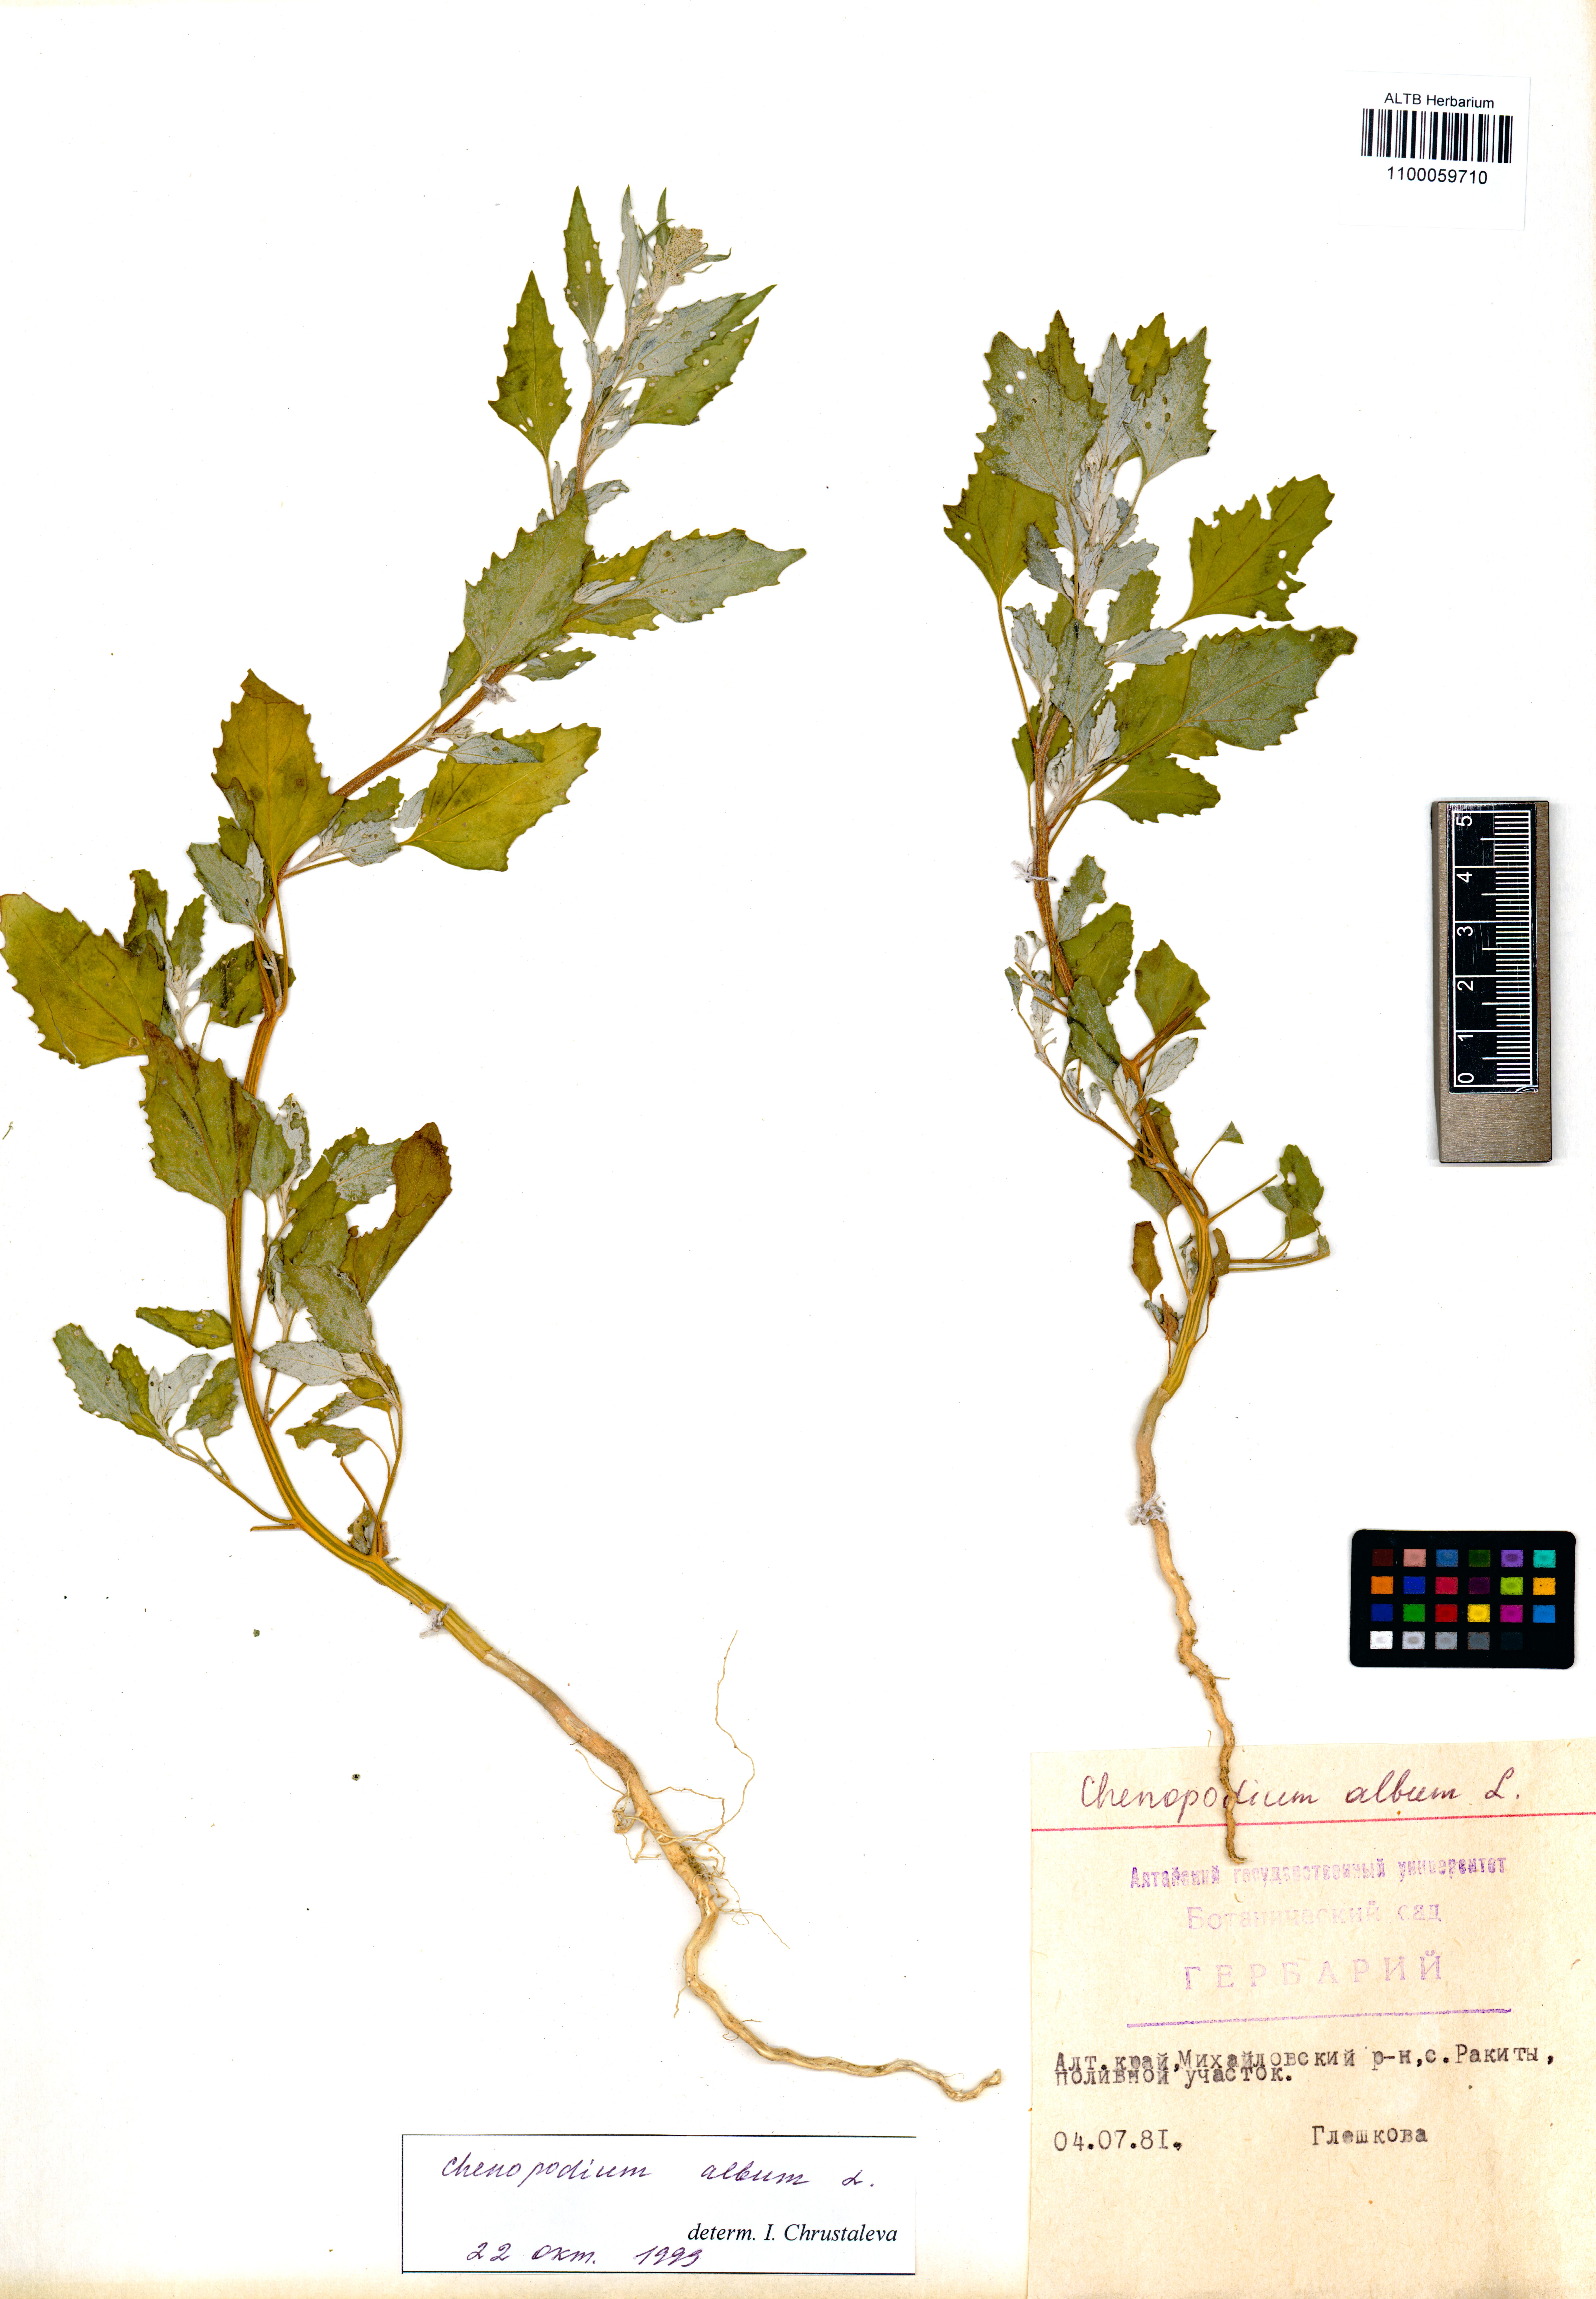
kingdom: Plantae
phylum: Tracheophyta
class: Magnoliopsida
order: Caryophyllales
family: Amaranthaceae
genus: Chenopodium
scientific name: Chenopodium album
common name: Fat-hen
